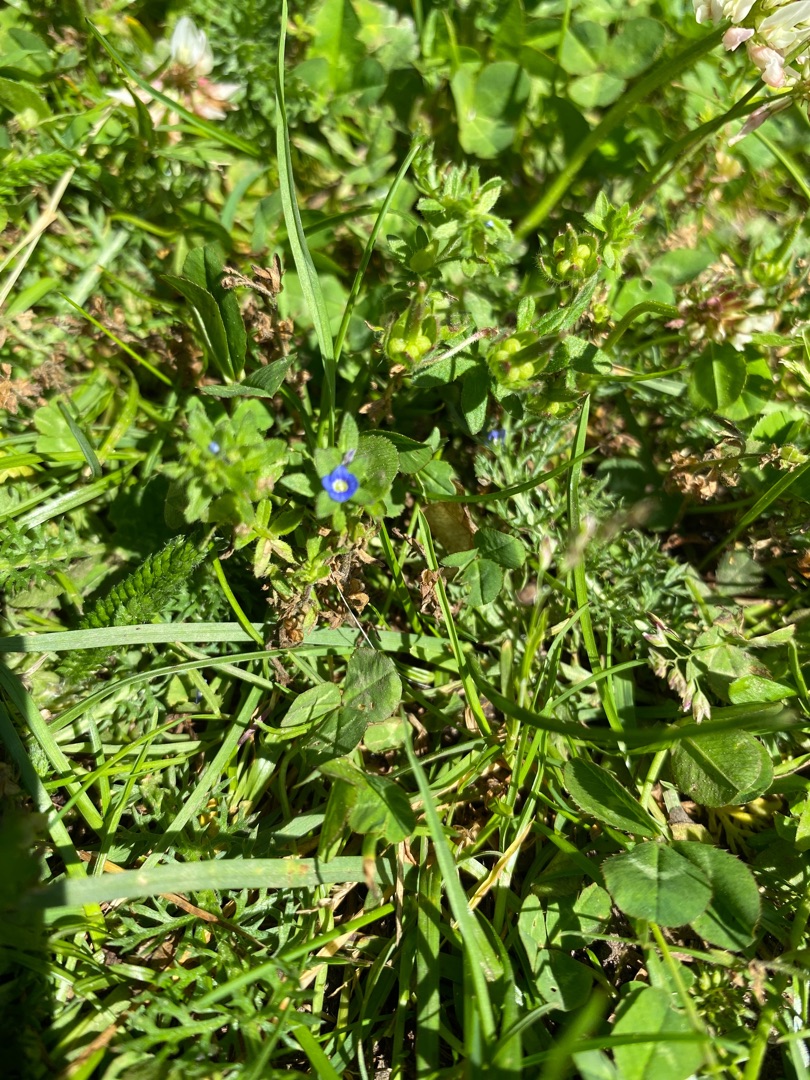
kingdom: Plantae
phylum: Tracheophyta
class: Magnoliopsida
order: Lamiales
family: Plantaginaceae
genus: Veronica
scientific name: Veronica arvensis
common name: Mark-ærenpris
